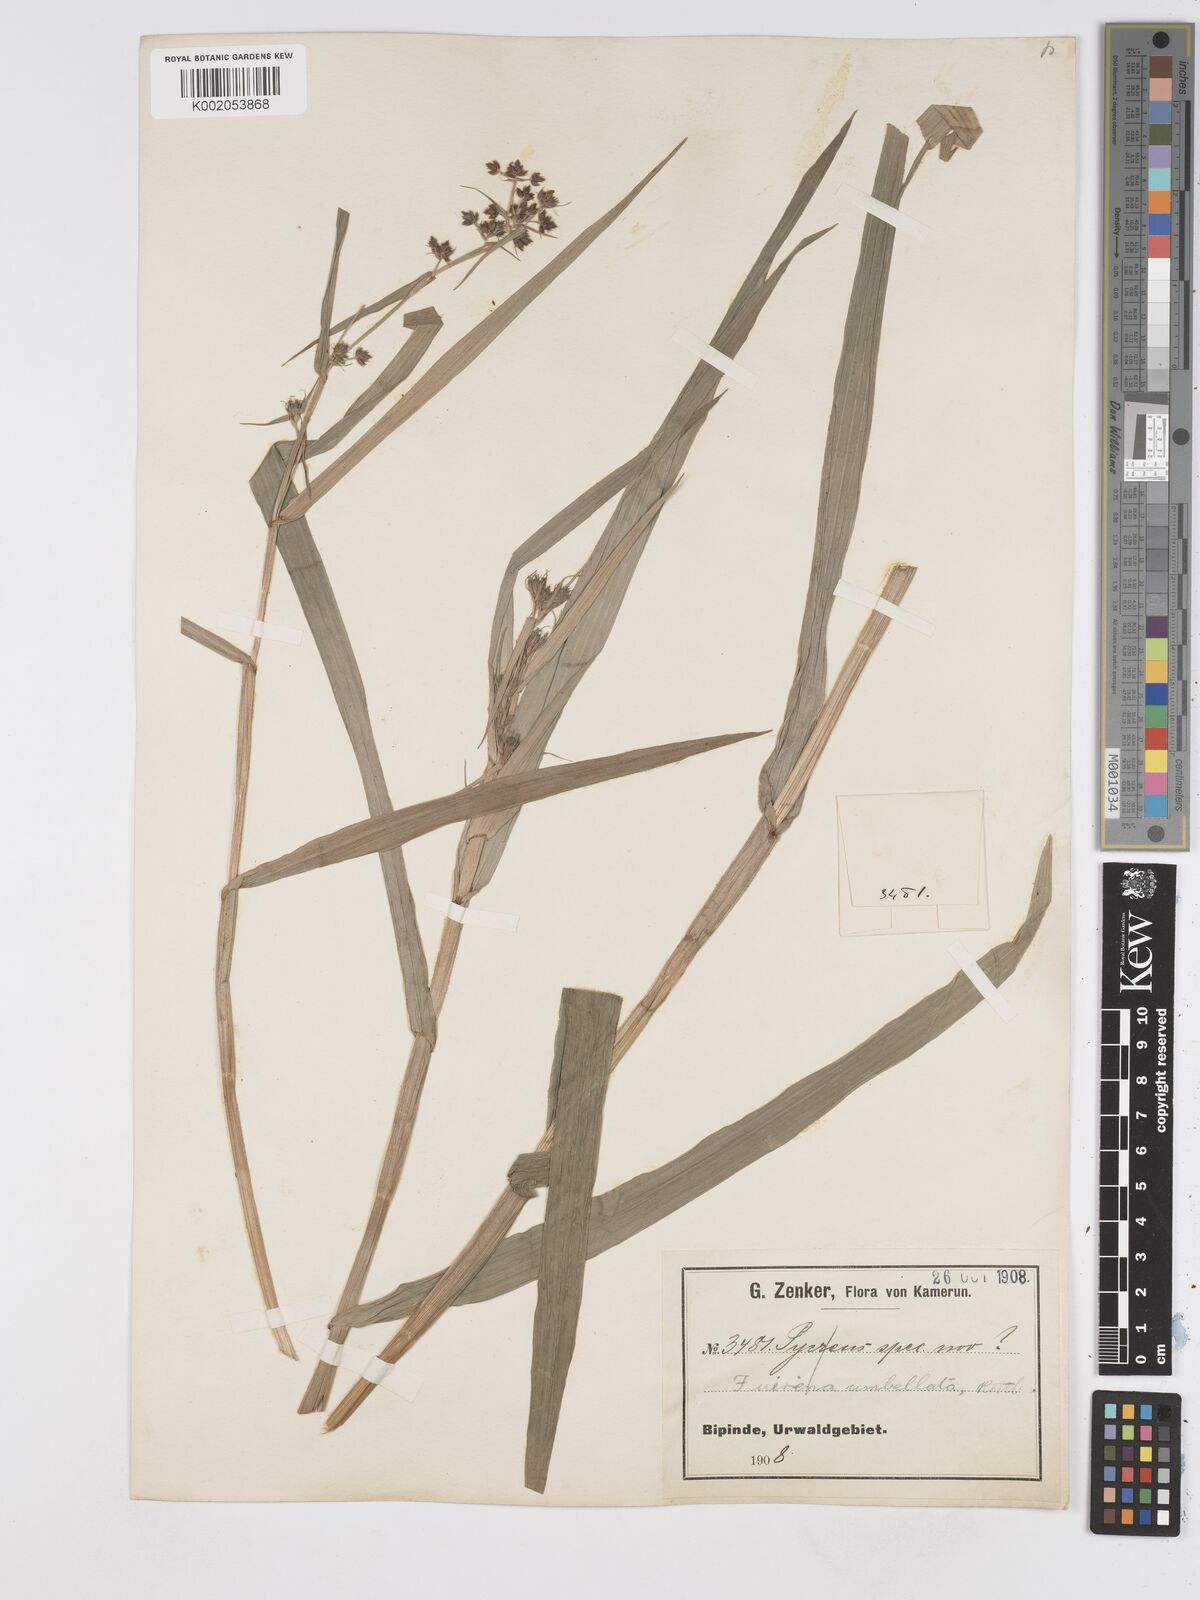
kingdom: Plantae
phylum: Tracheophyta
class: Liliopsida
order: Poales
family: Cyperaceae
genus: Fuirena
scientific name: Fuirena umbellata
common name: Yefen
